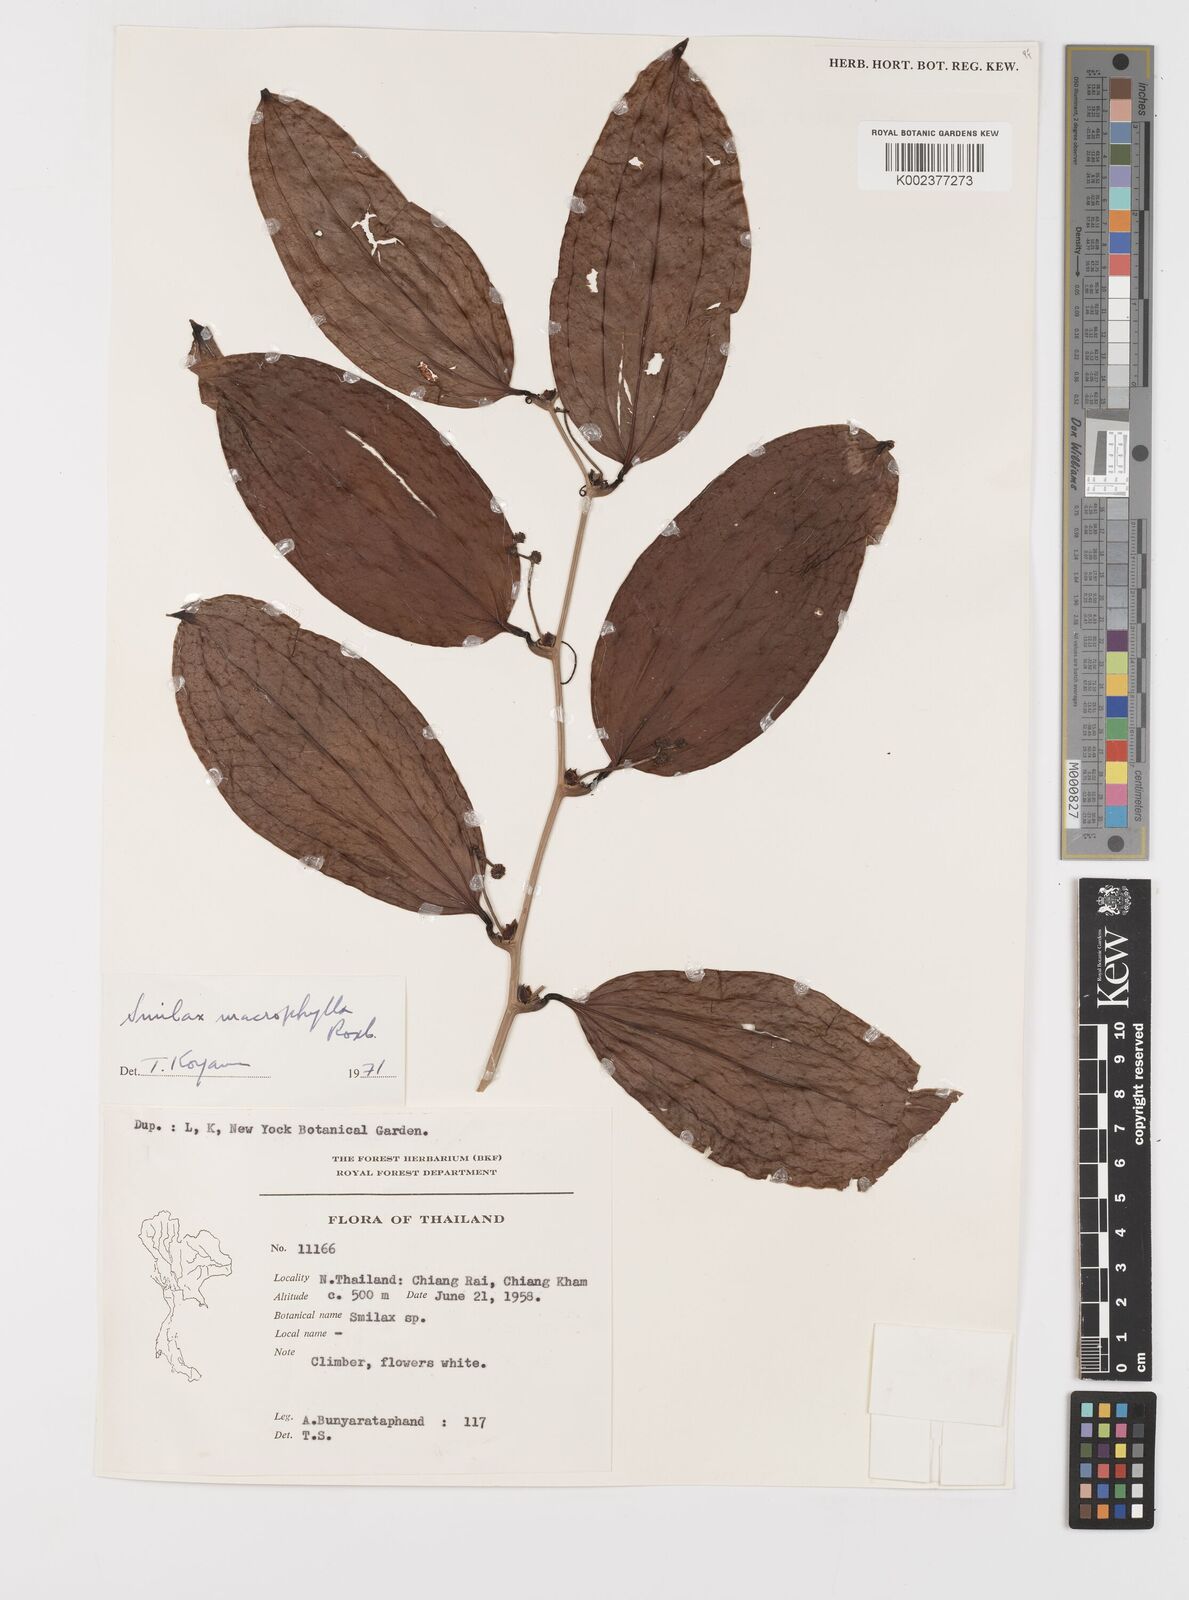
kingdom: Plantae
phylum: Tracheophyta
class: Liliopsida
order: Liliales
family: Smilacaceae
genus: Smilax
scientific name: Smilax ovalifolia
